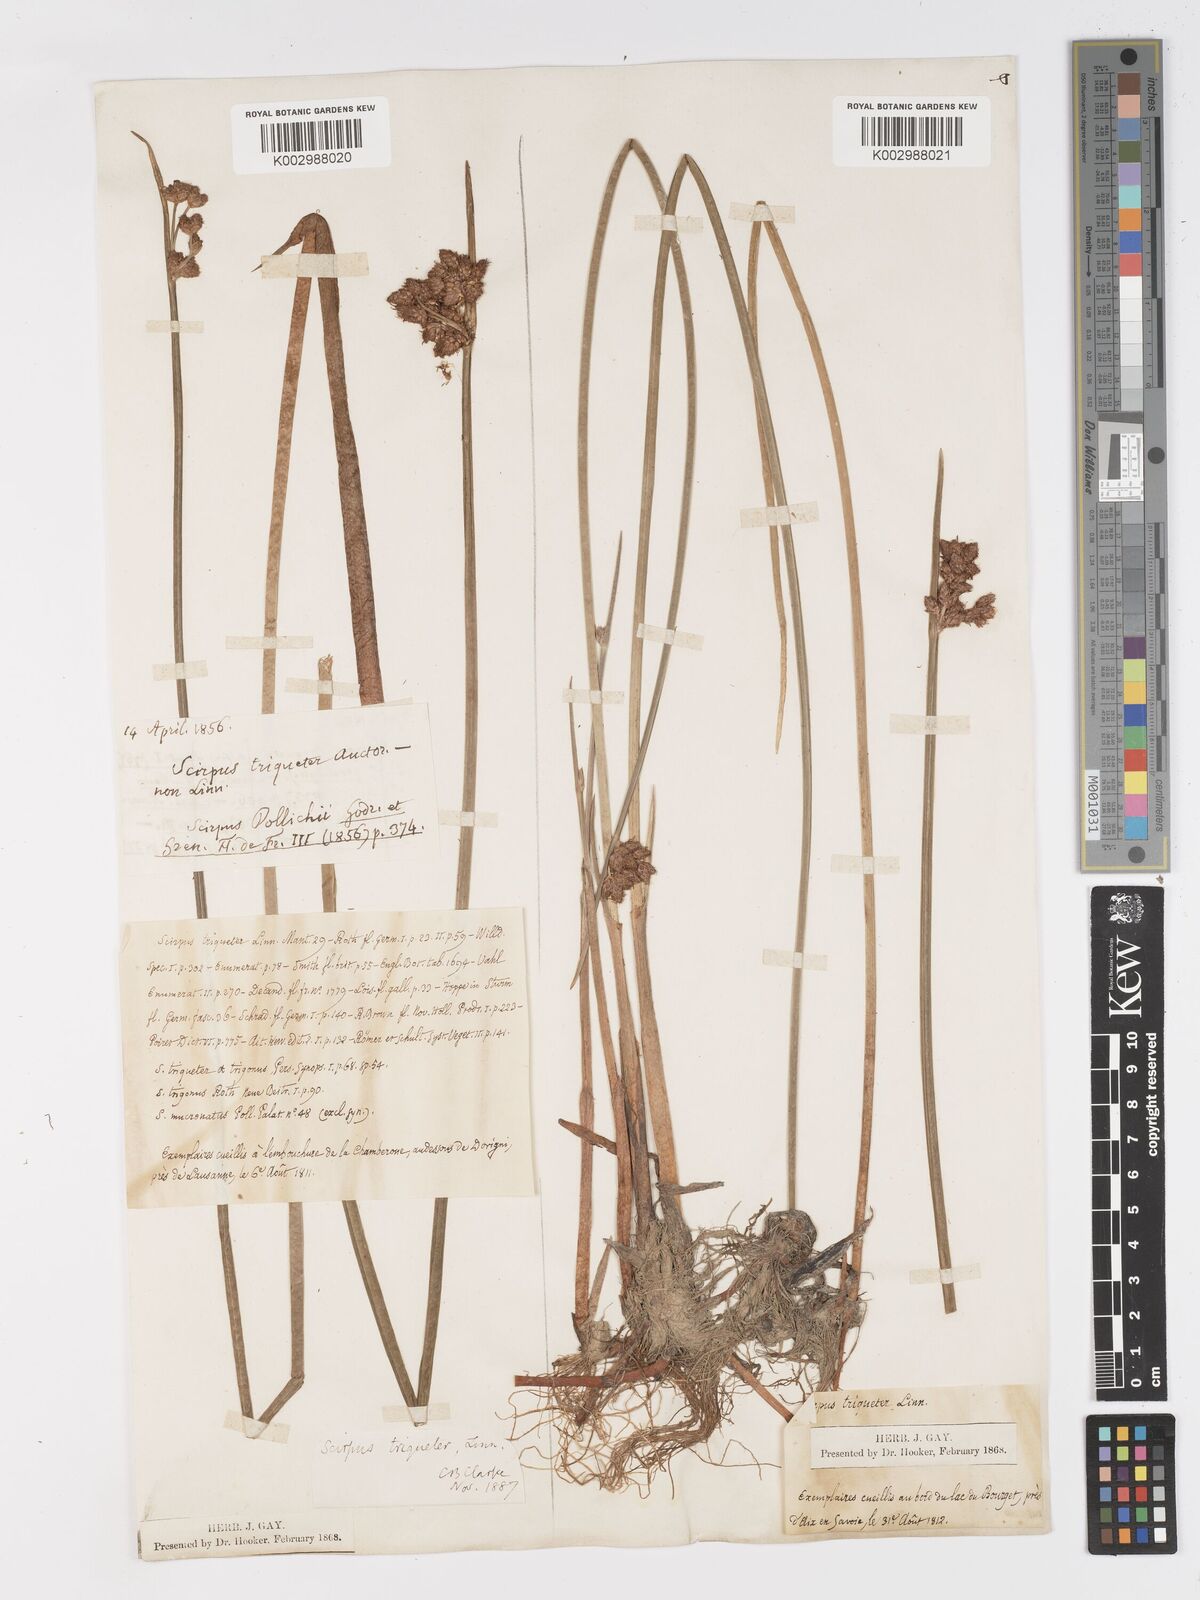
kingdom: Plantae
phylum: Tracheophyta
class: Liliopsida
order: Poales
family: Cyperaceae
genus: Schoenoplectus
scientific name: Schoenoplectus triqueter
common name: Triangular club-rush
